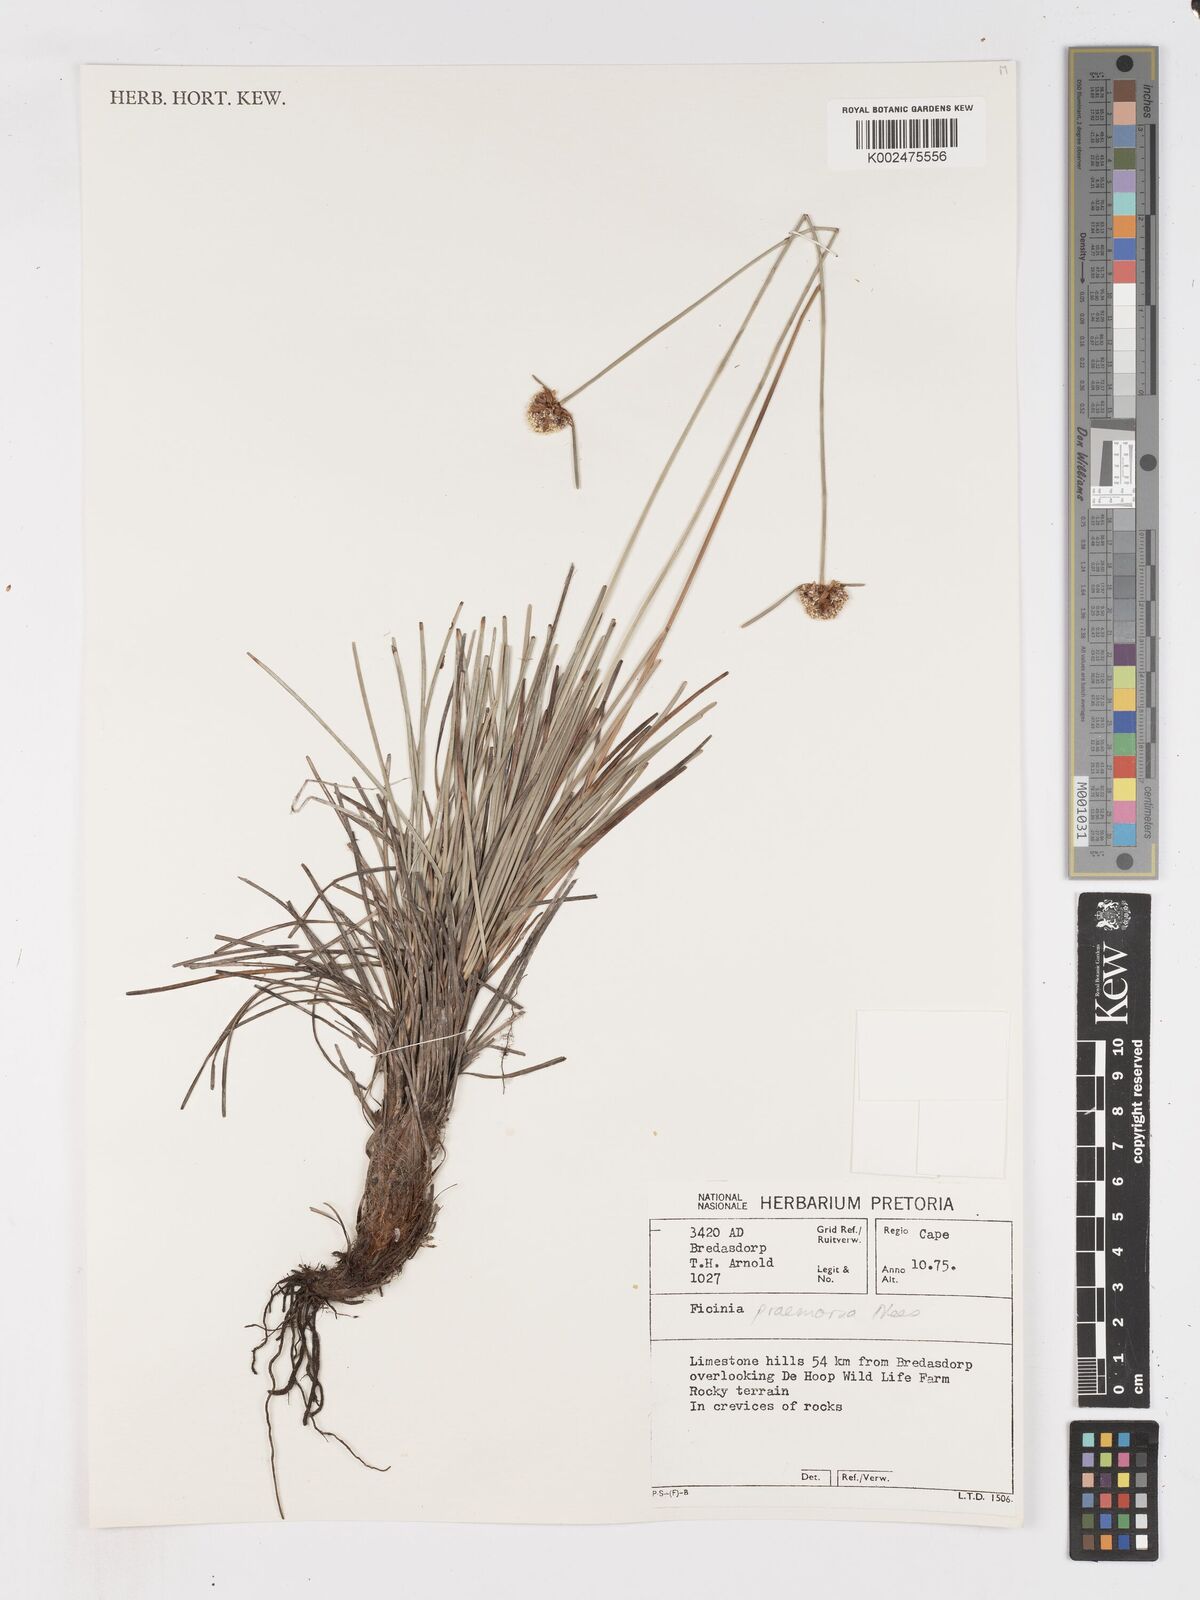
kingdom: Plantae
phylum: Tracheophyta
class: Liliopsida
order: Poales
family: Cyperaceae
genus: Ficinia
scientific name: Ficinia praemorsa
